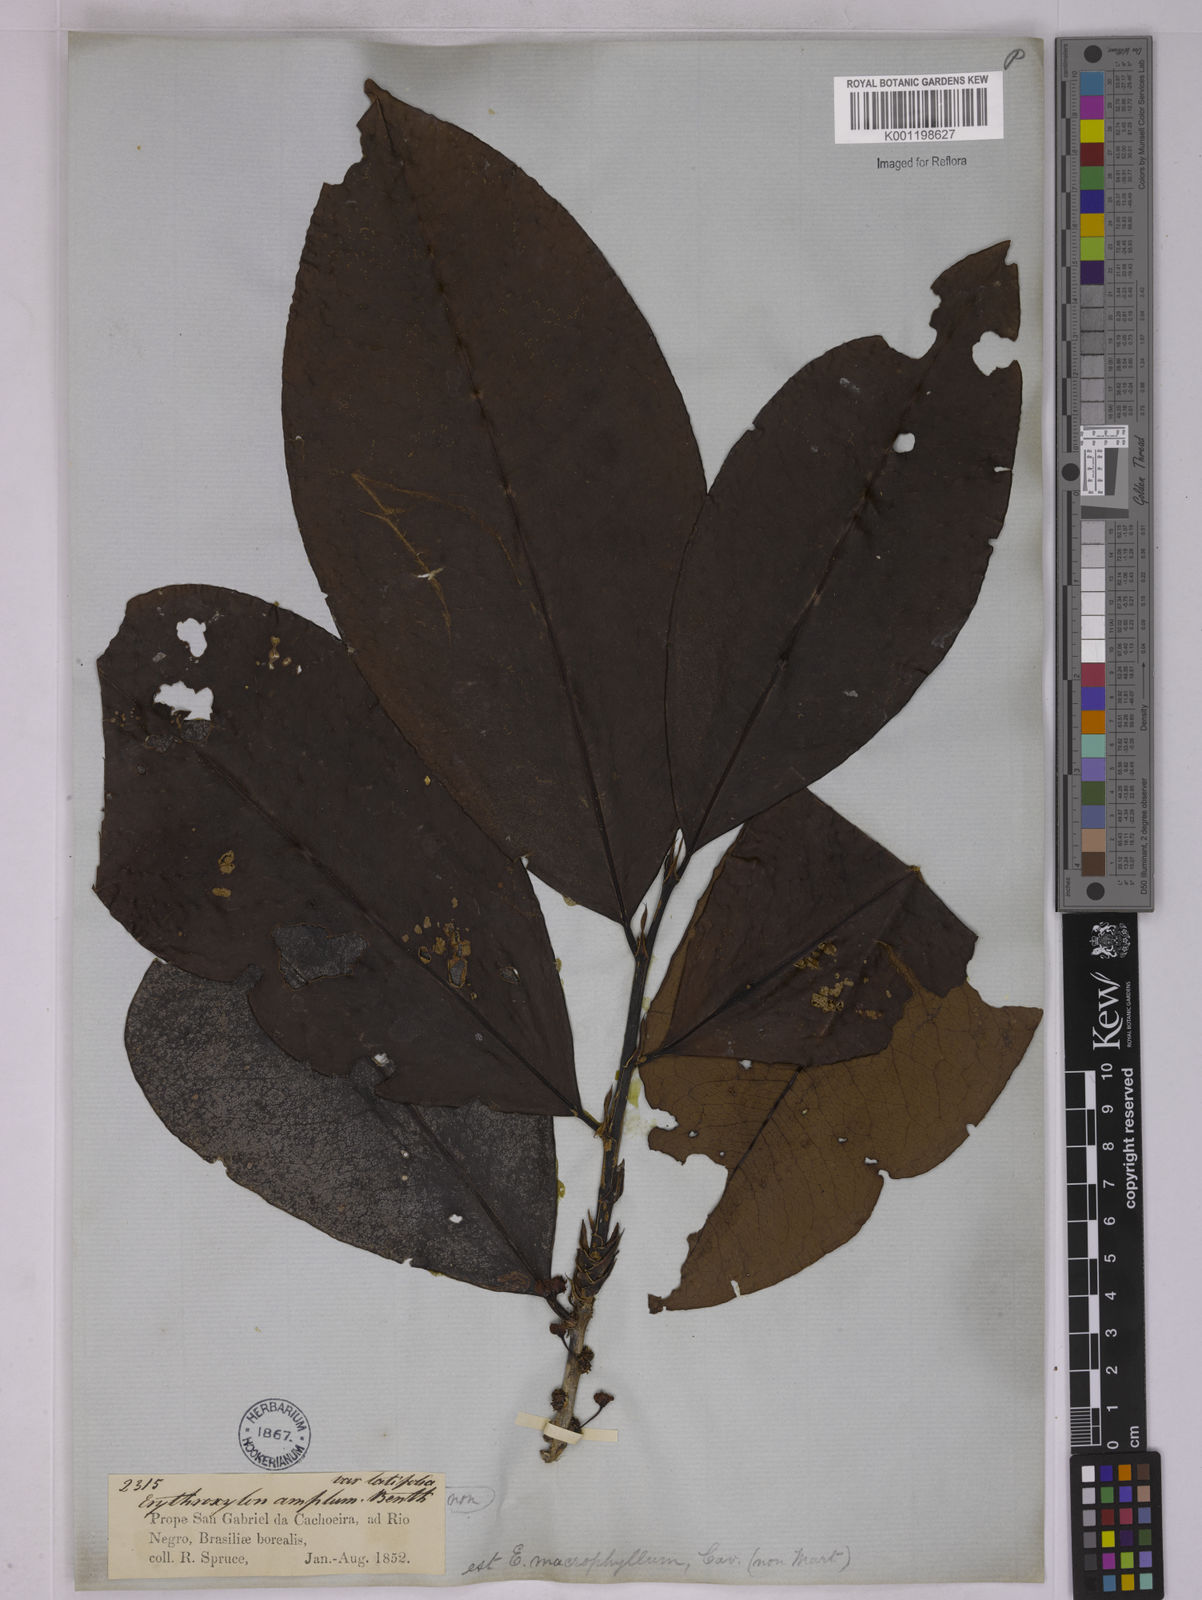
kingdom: Plantae
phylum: Tracheophyta
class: Magnoliopsida
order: Malpighiales
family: Erythroxylaceae
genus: Erythroxylum
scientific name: Erythroxylum macrophyllum
